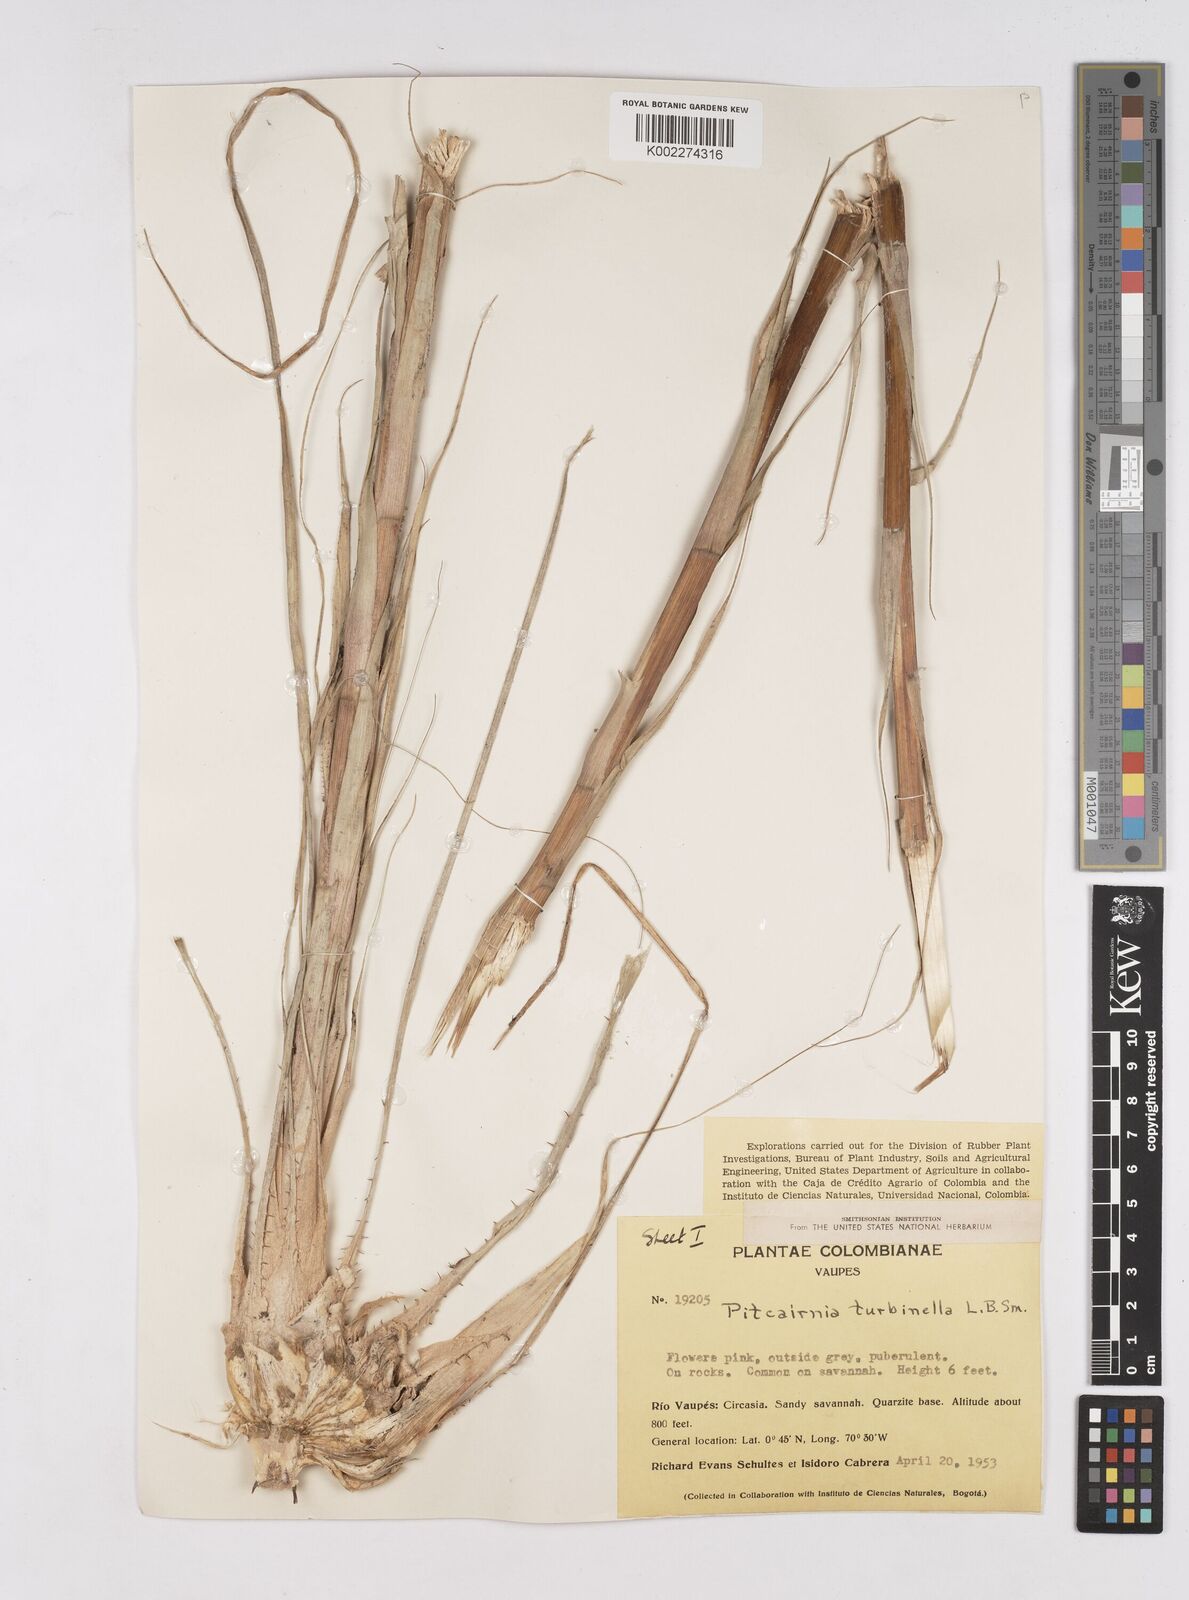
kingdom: Plantae
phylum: Tracheophyta
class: Liliopsida
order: Poales
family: Bromeliaceae
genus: Pitcairnia
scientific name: Pitcairnia turbinella
